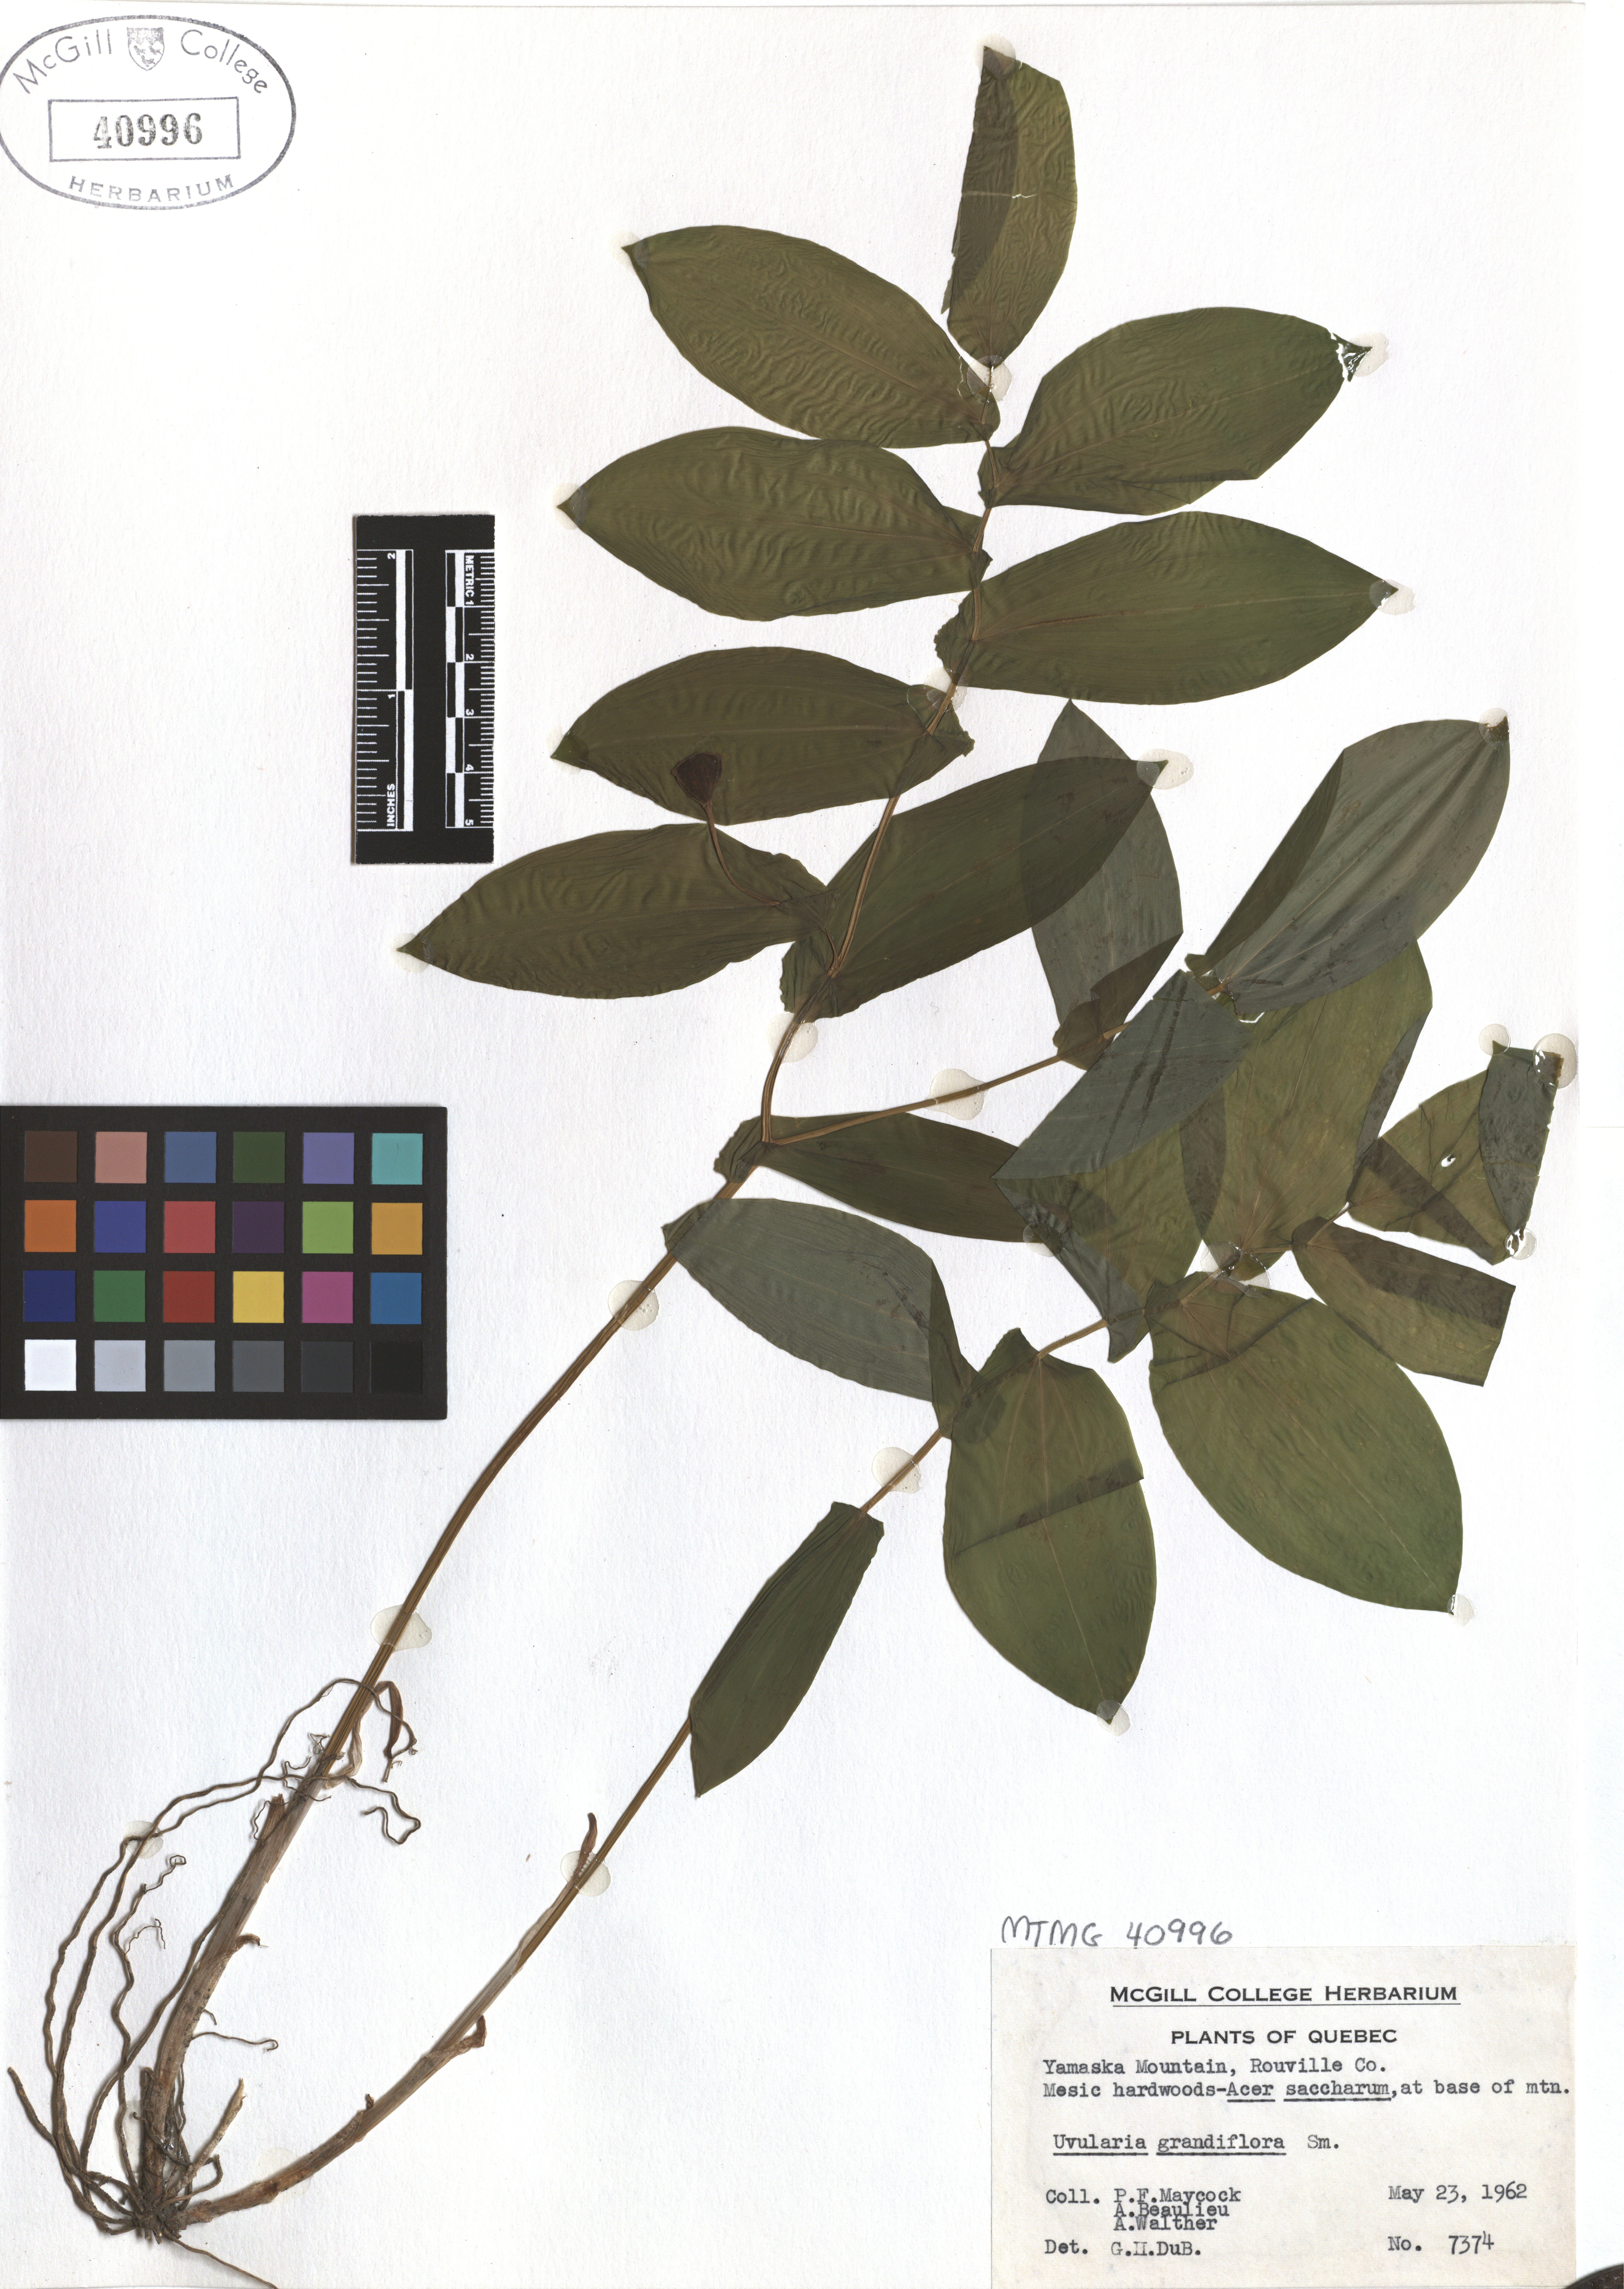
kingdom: Plantae
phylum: Tracheophyta
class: Liliopsida
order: Liliales
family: Colchicaceae
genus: Uvularia
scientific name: Uvularia grandiflora
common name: Bellwort
